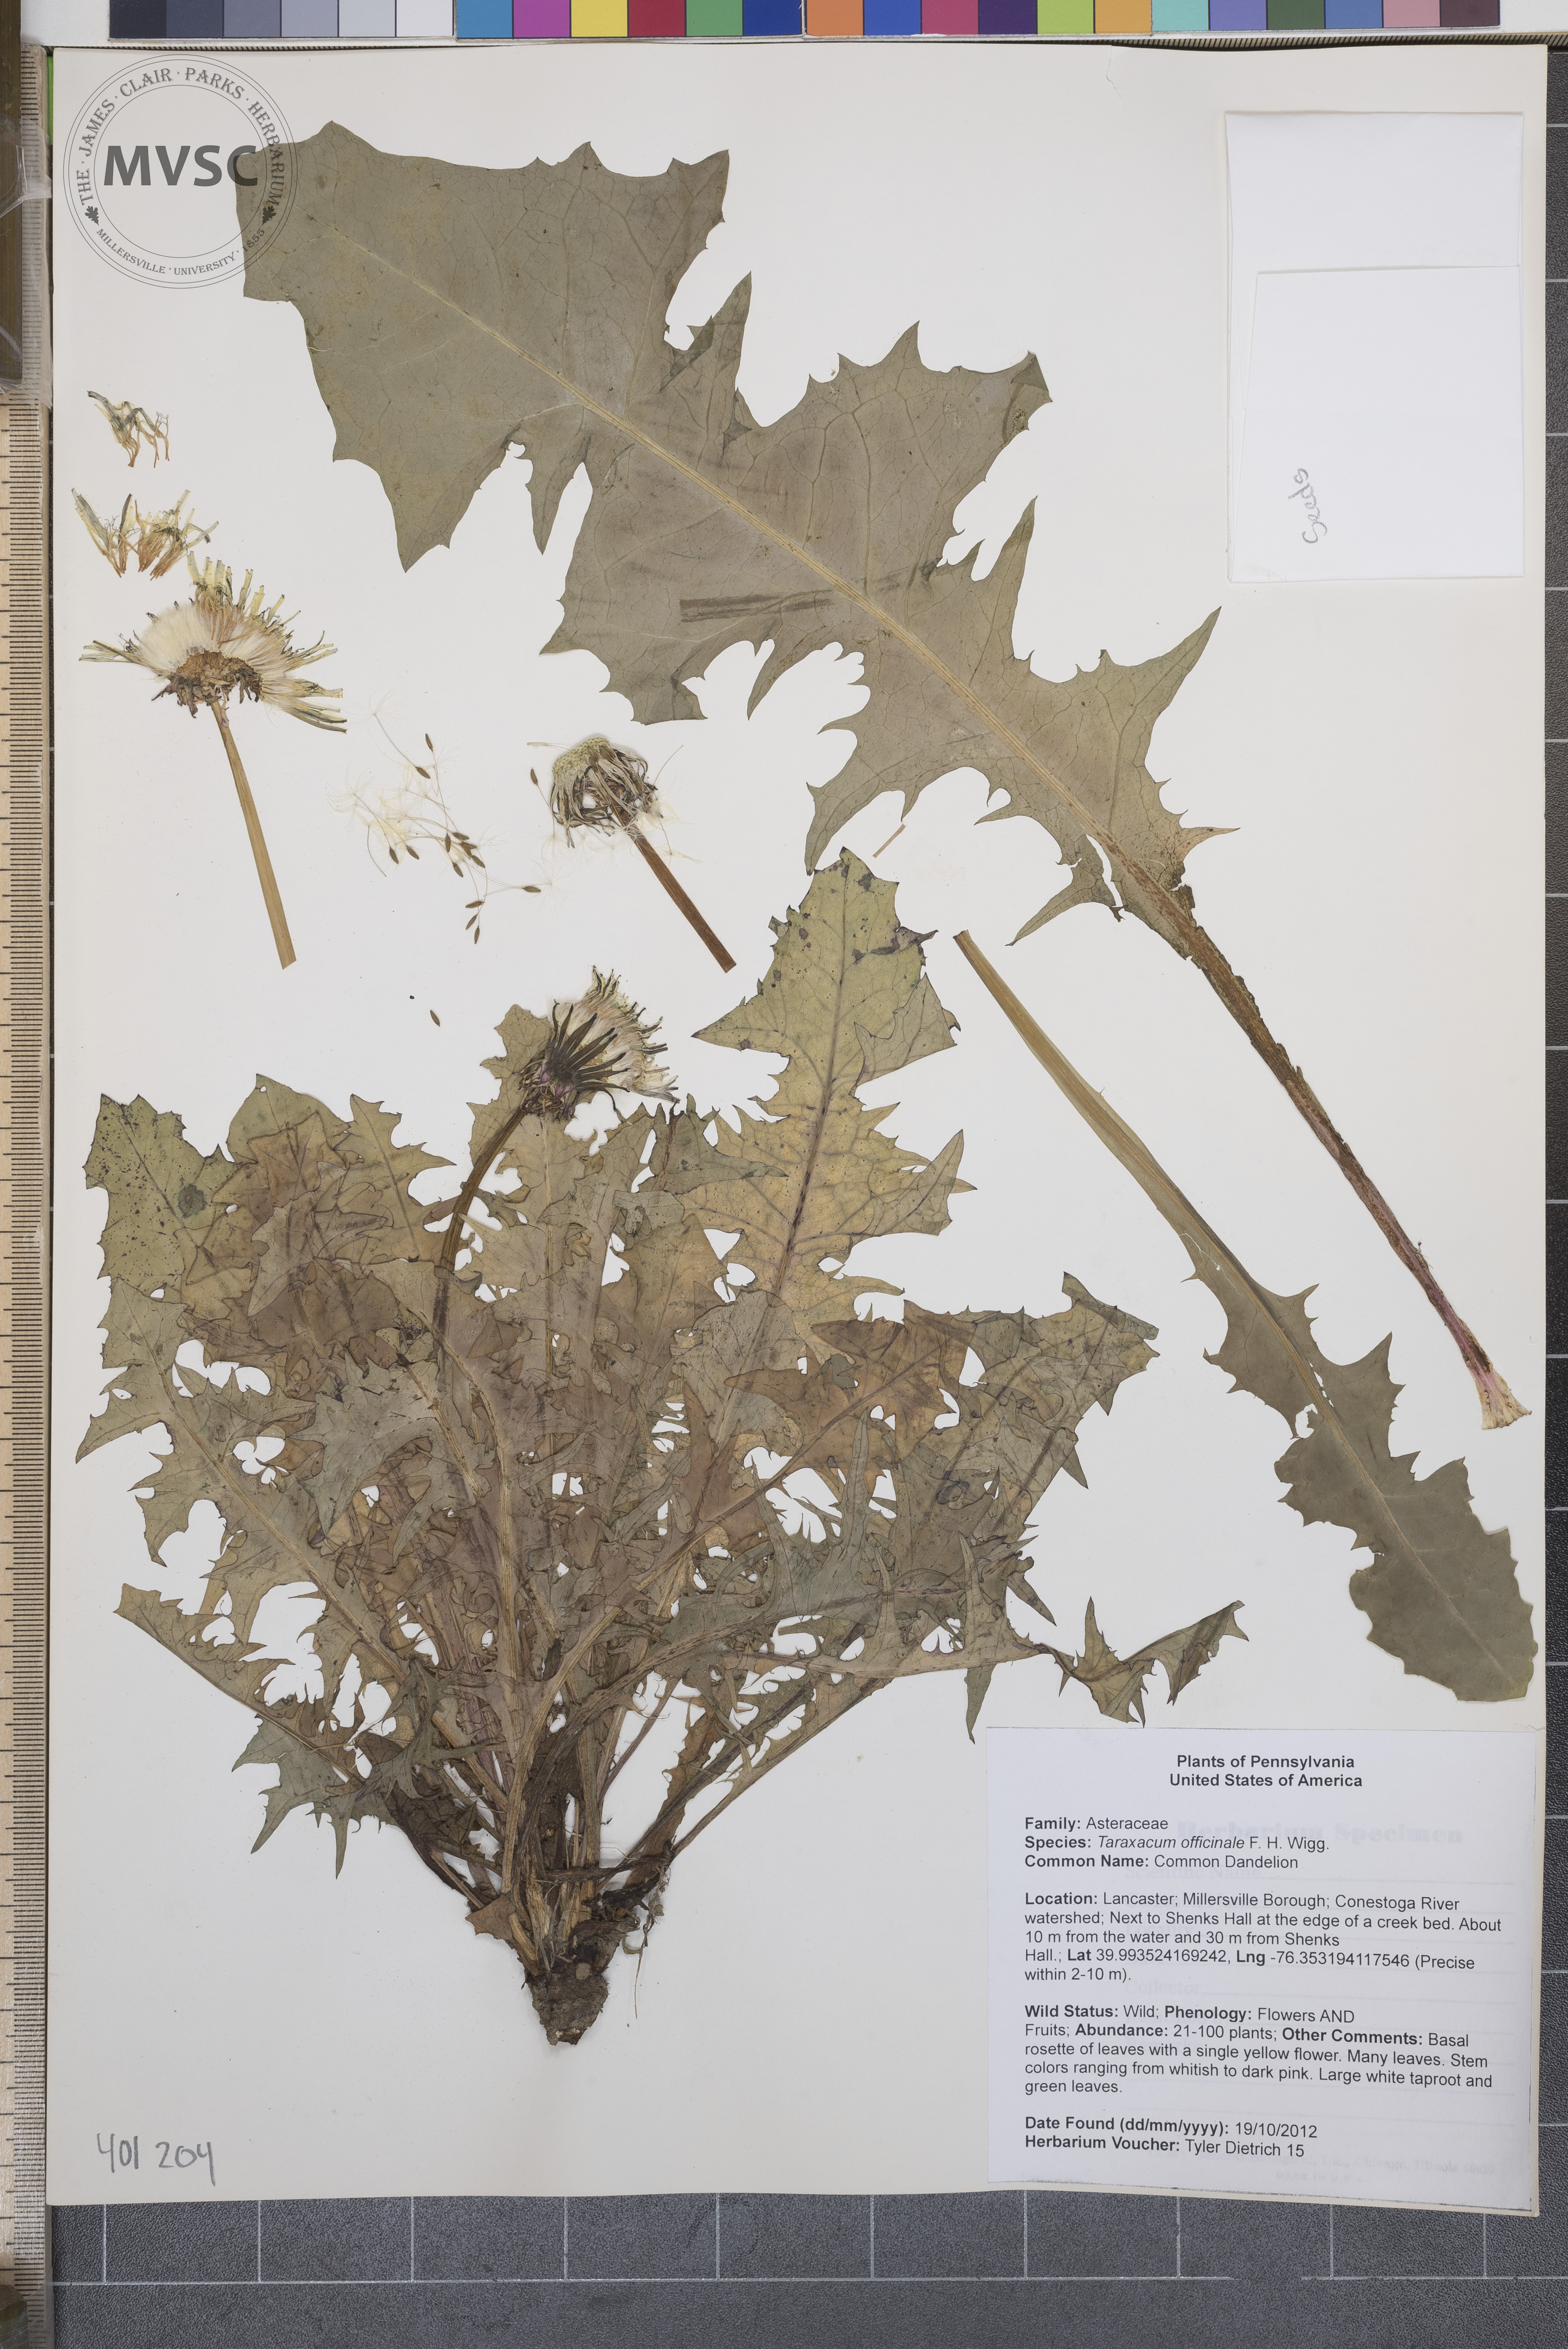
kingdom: Plantae
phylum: Tracheophyta
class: Magnoliopsida
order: Asterales
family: Asteraceae
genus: Taraxacum
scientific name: Taraxacum officinale
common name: Common Dandelion
